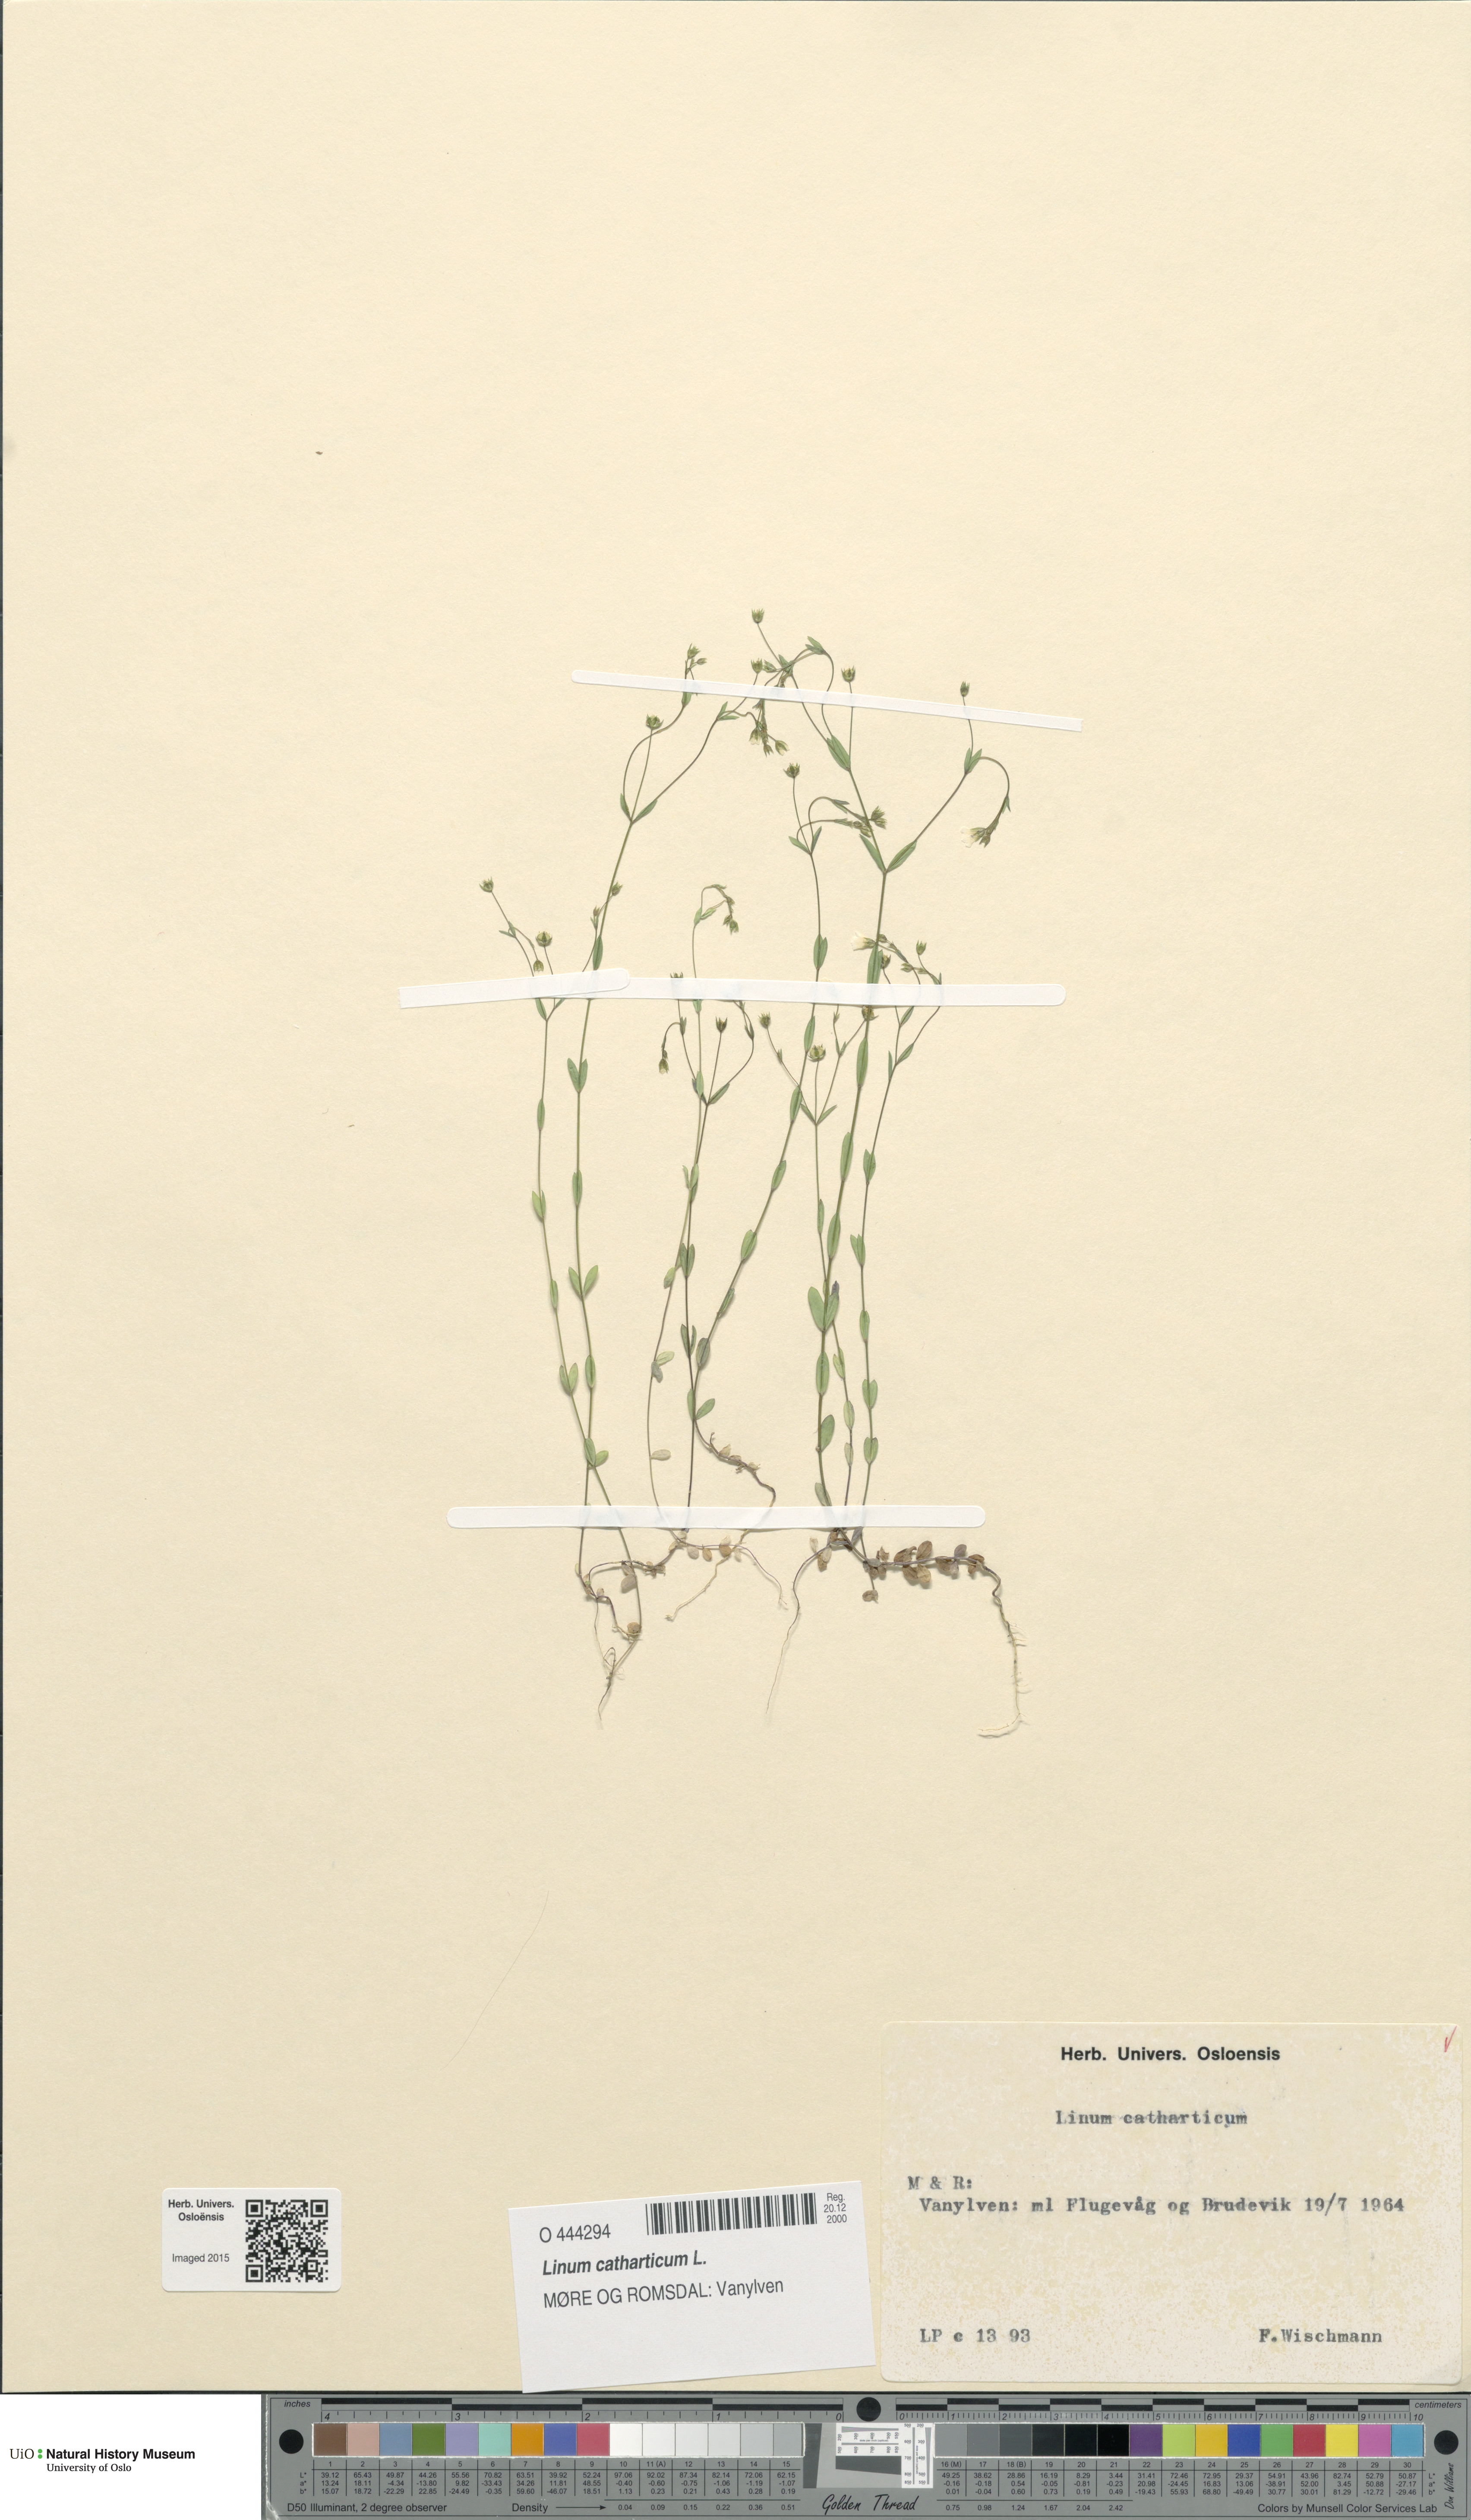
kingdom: Plantae
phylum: Tracheophyta
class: Magnoliopsida
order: Malpighiales
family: Linaceae
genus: Linum
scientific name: Linum catharticum
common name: Fairy flax
